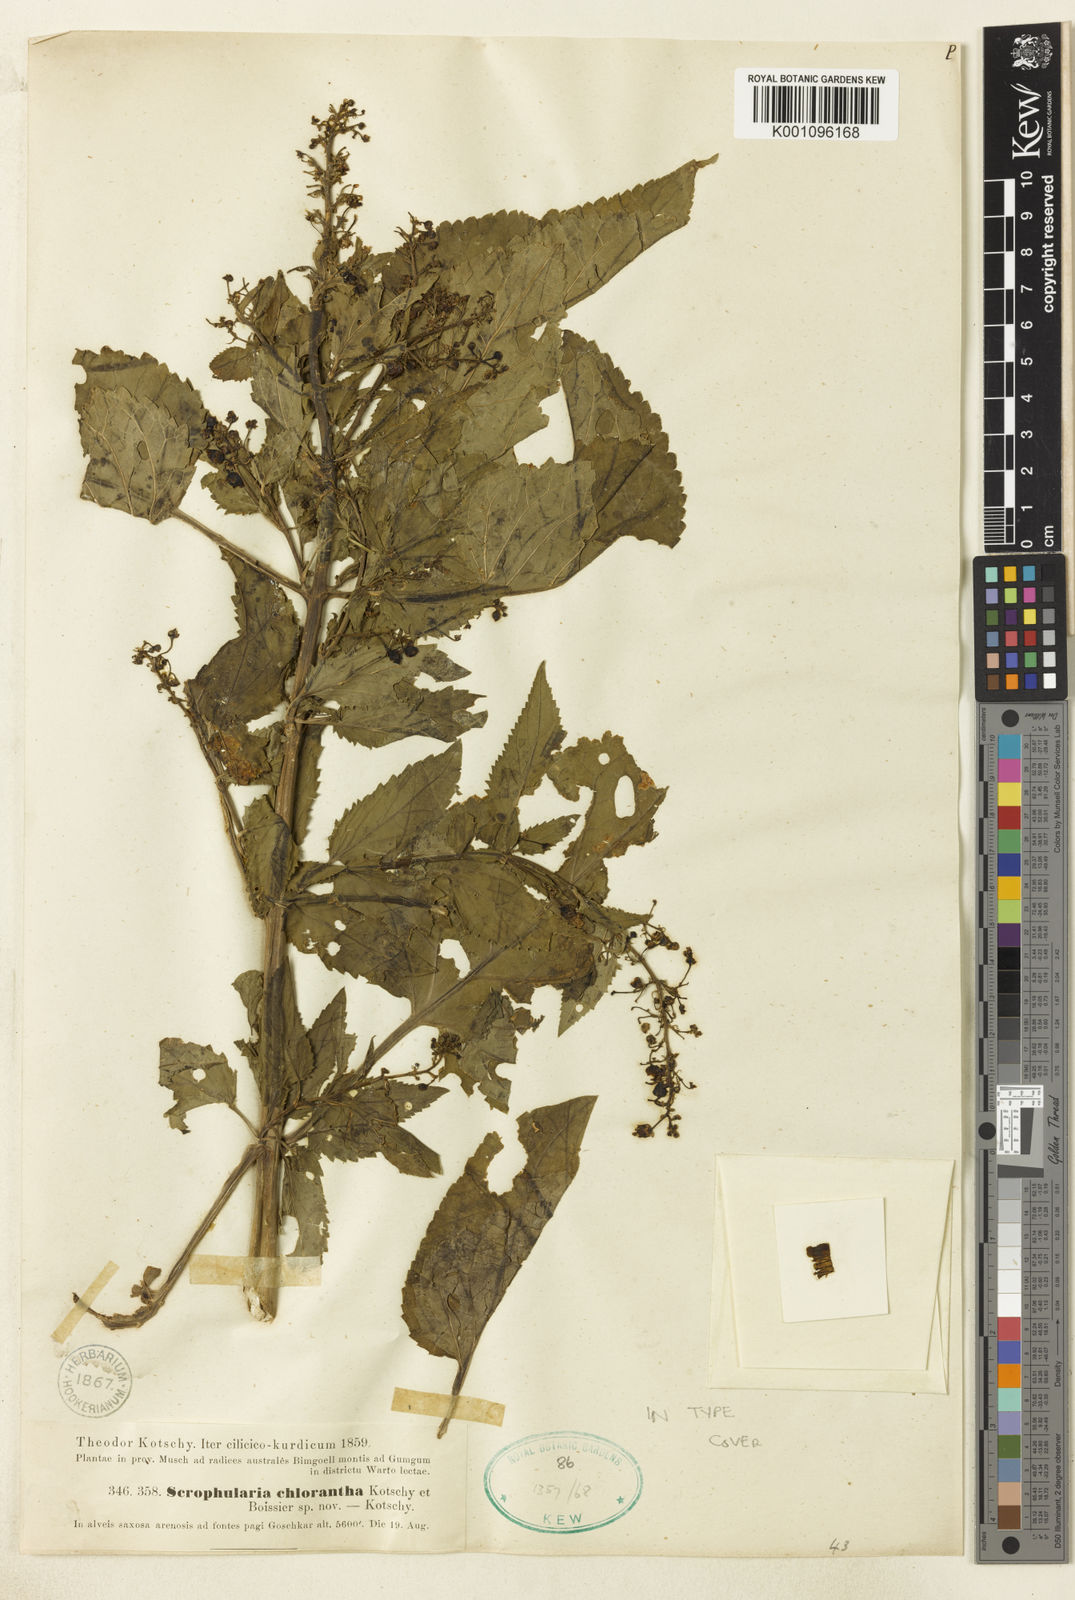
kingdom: Plantae
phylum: Tracheophyta
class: Magnoliopsida
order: Lamiales
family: Scrophulariaceae
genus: Scrophularia
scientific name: Scrophularia chlorantha
